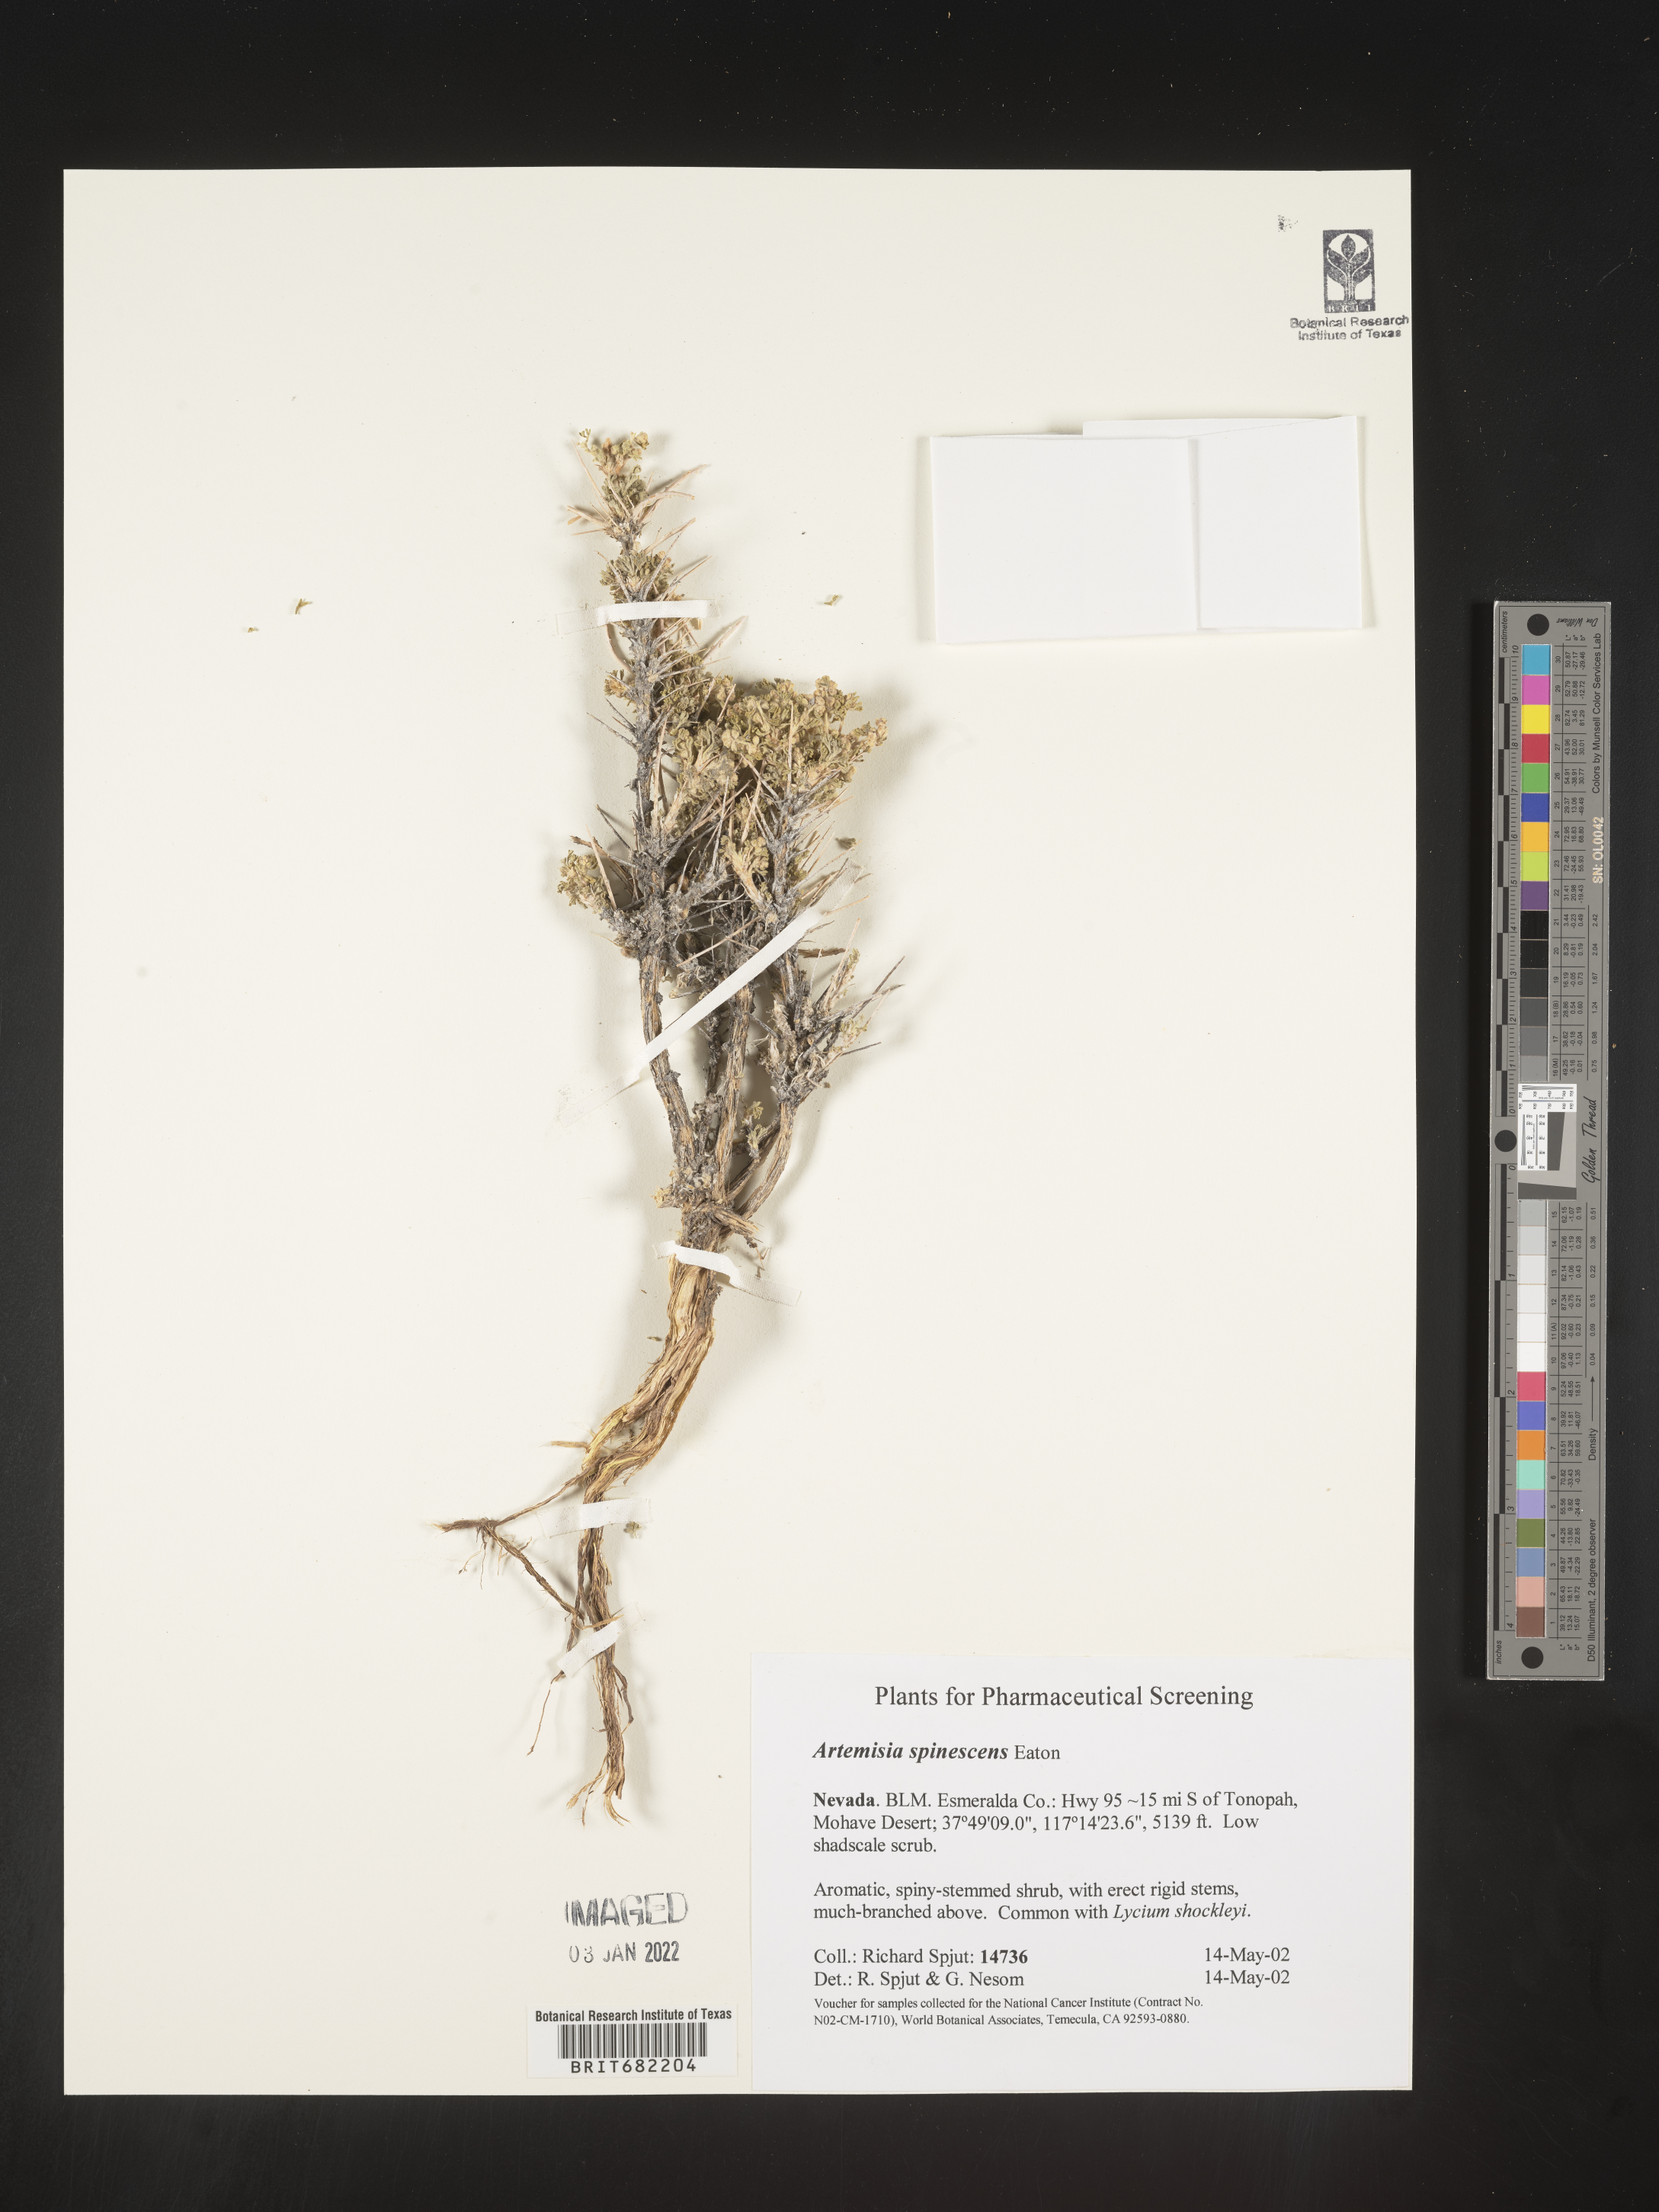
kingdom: Plantae
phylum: Tracheophyta
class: Magnoliopsida
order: Asterales
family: Asteraceae
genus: Artemisia
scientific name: Artemisia spinescens
